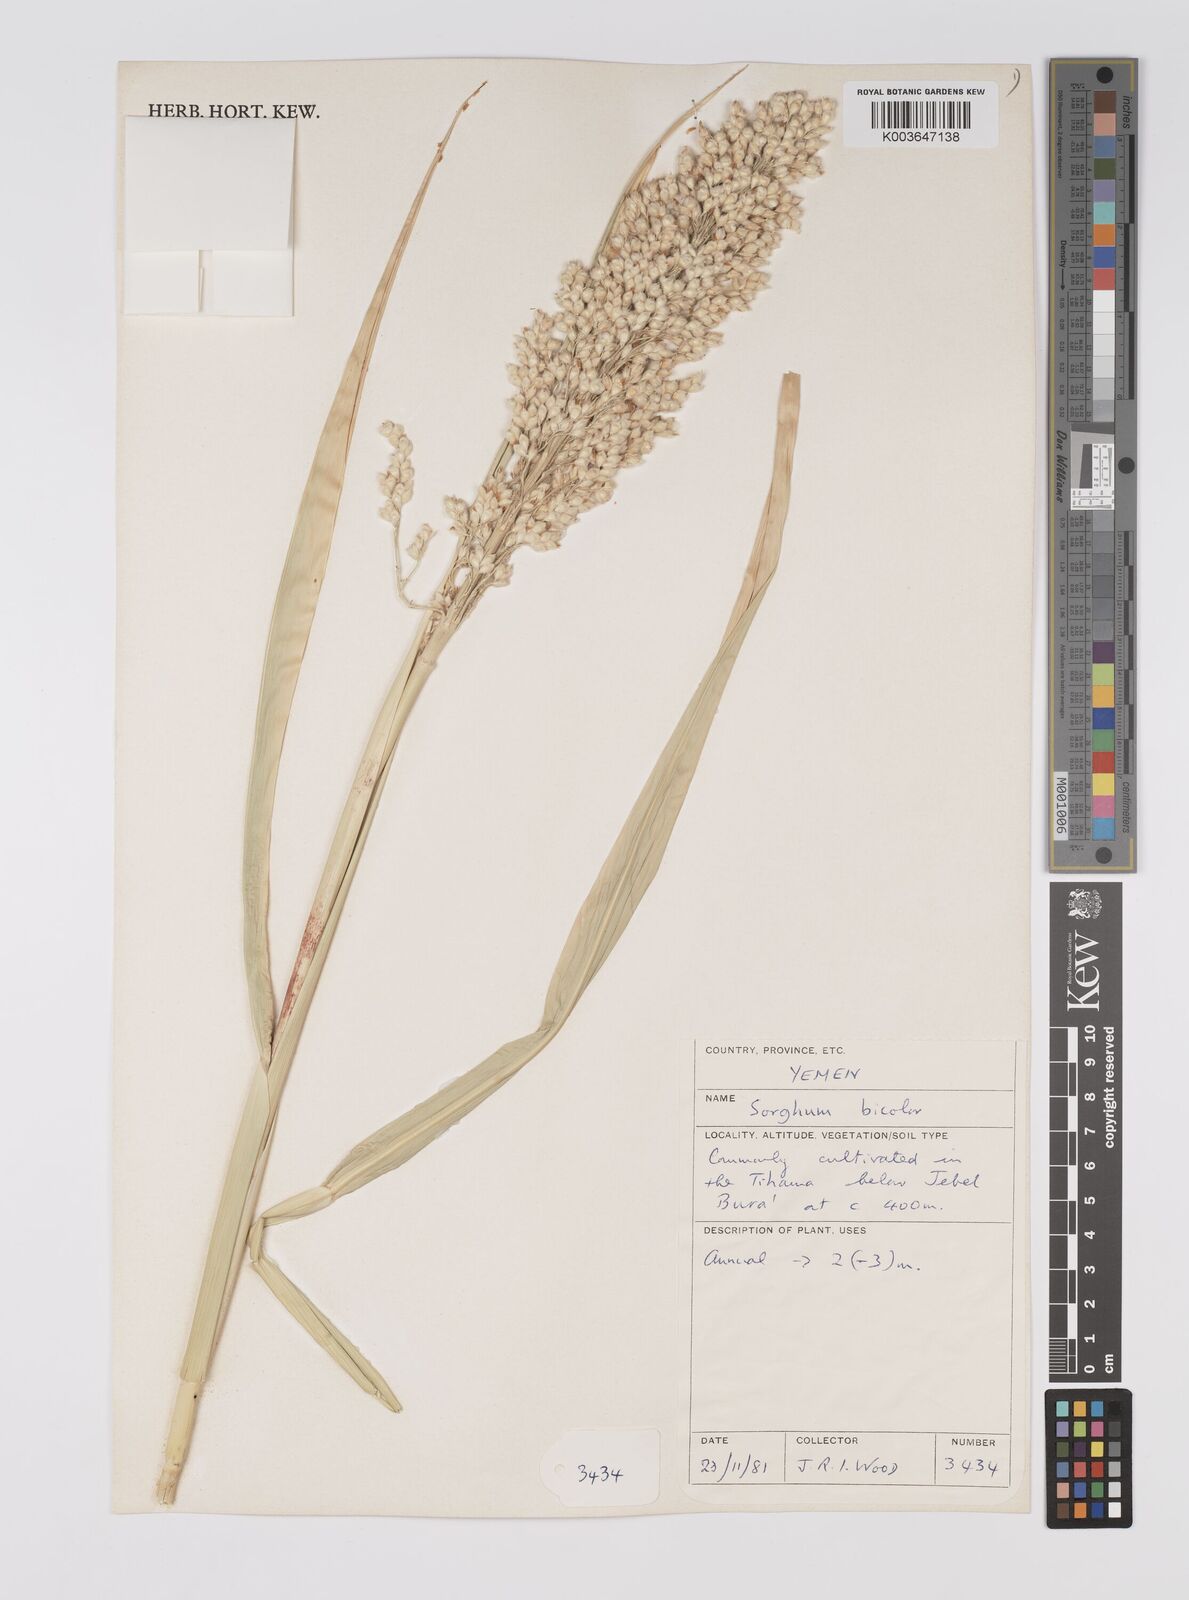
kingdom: Plantae
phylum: Tracheophyta
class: Liliopsida
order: Poales
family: Poaceae
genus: Sorghum
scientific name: Sorghum bicolor
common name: Sorghum
